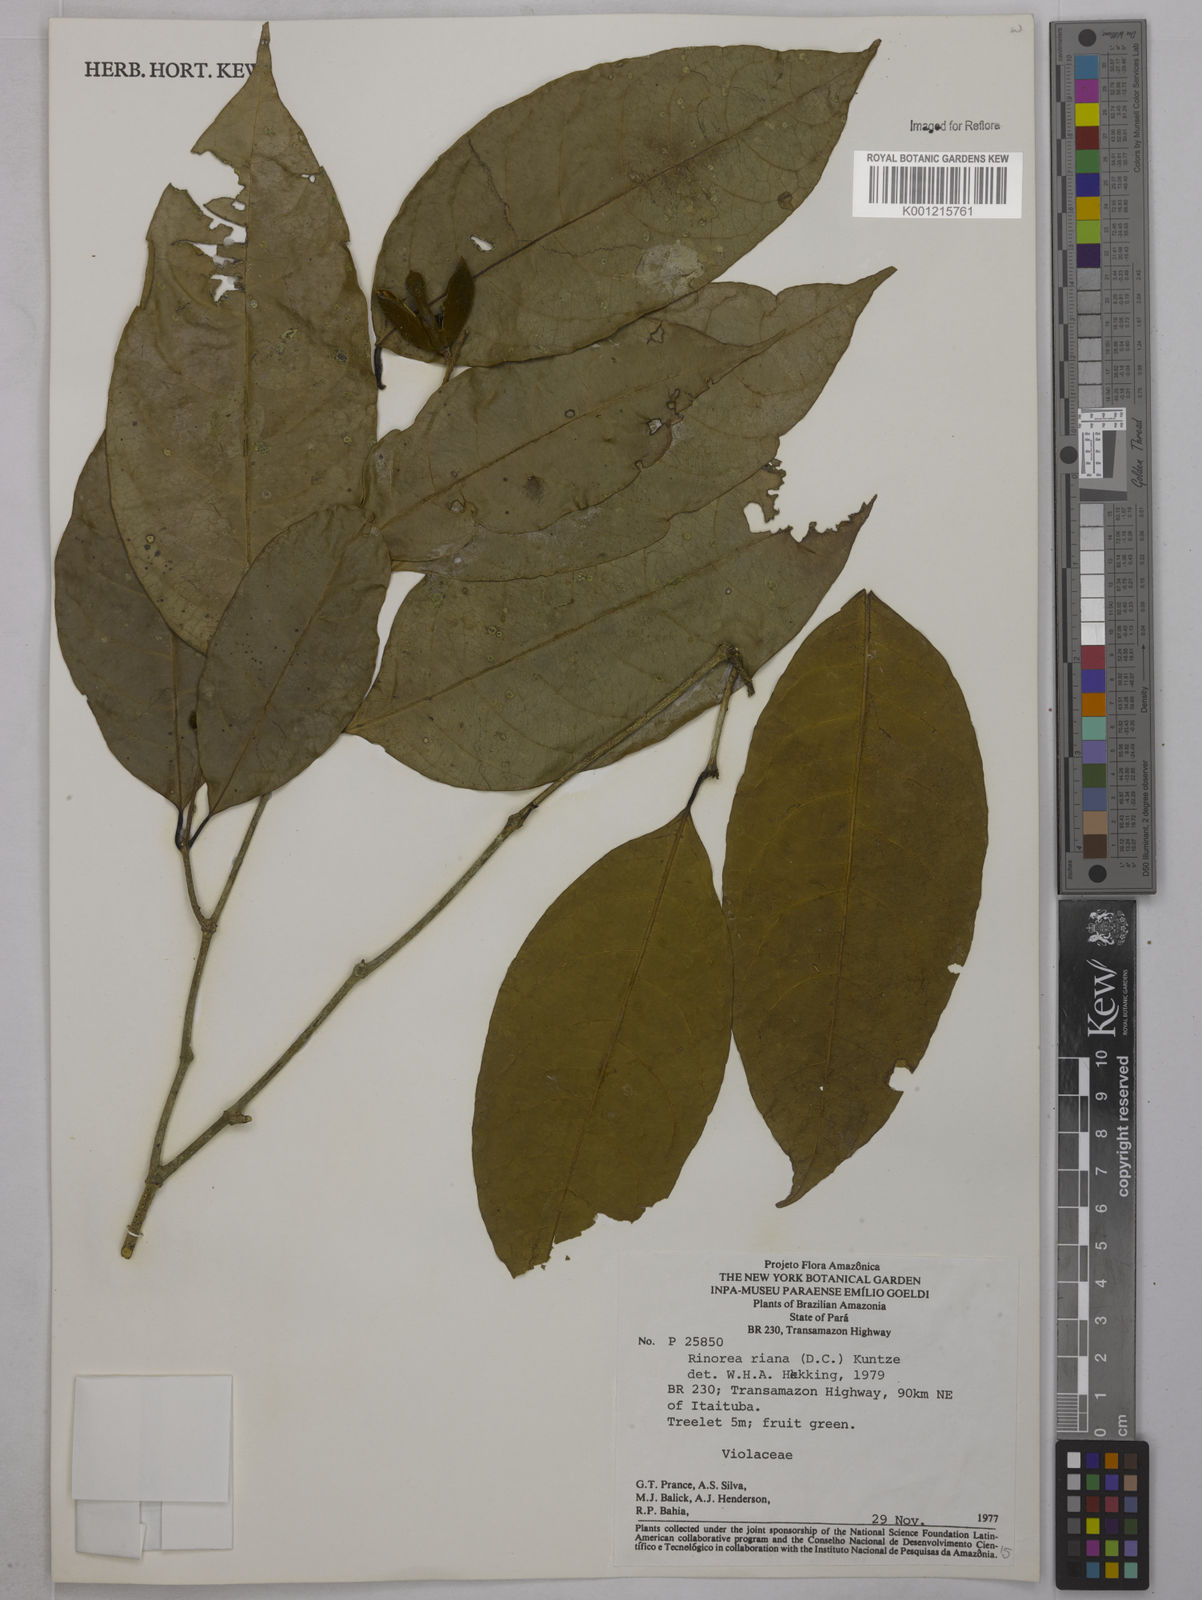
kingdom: Plantae
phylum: Tracheophyta
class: Magnoliopsida
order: Malpighiales
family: Violaceae
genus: Rinorea
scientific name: Rinorea riana
